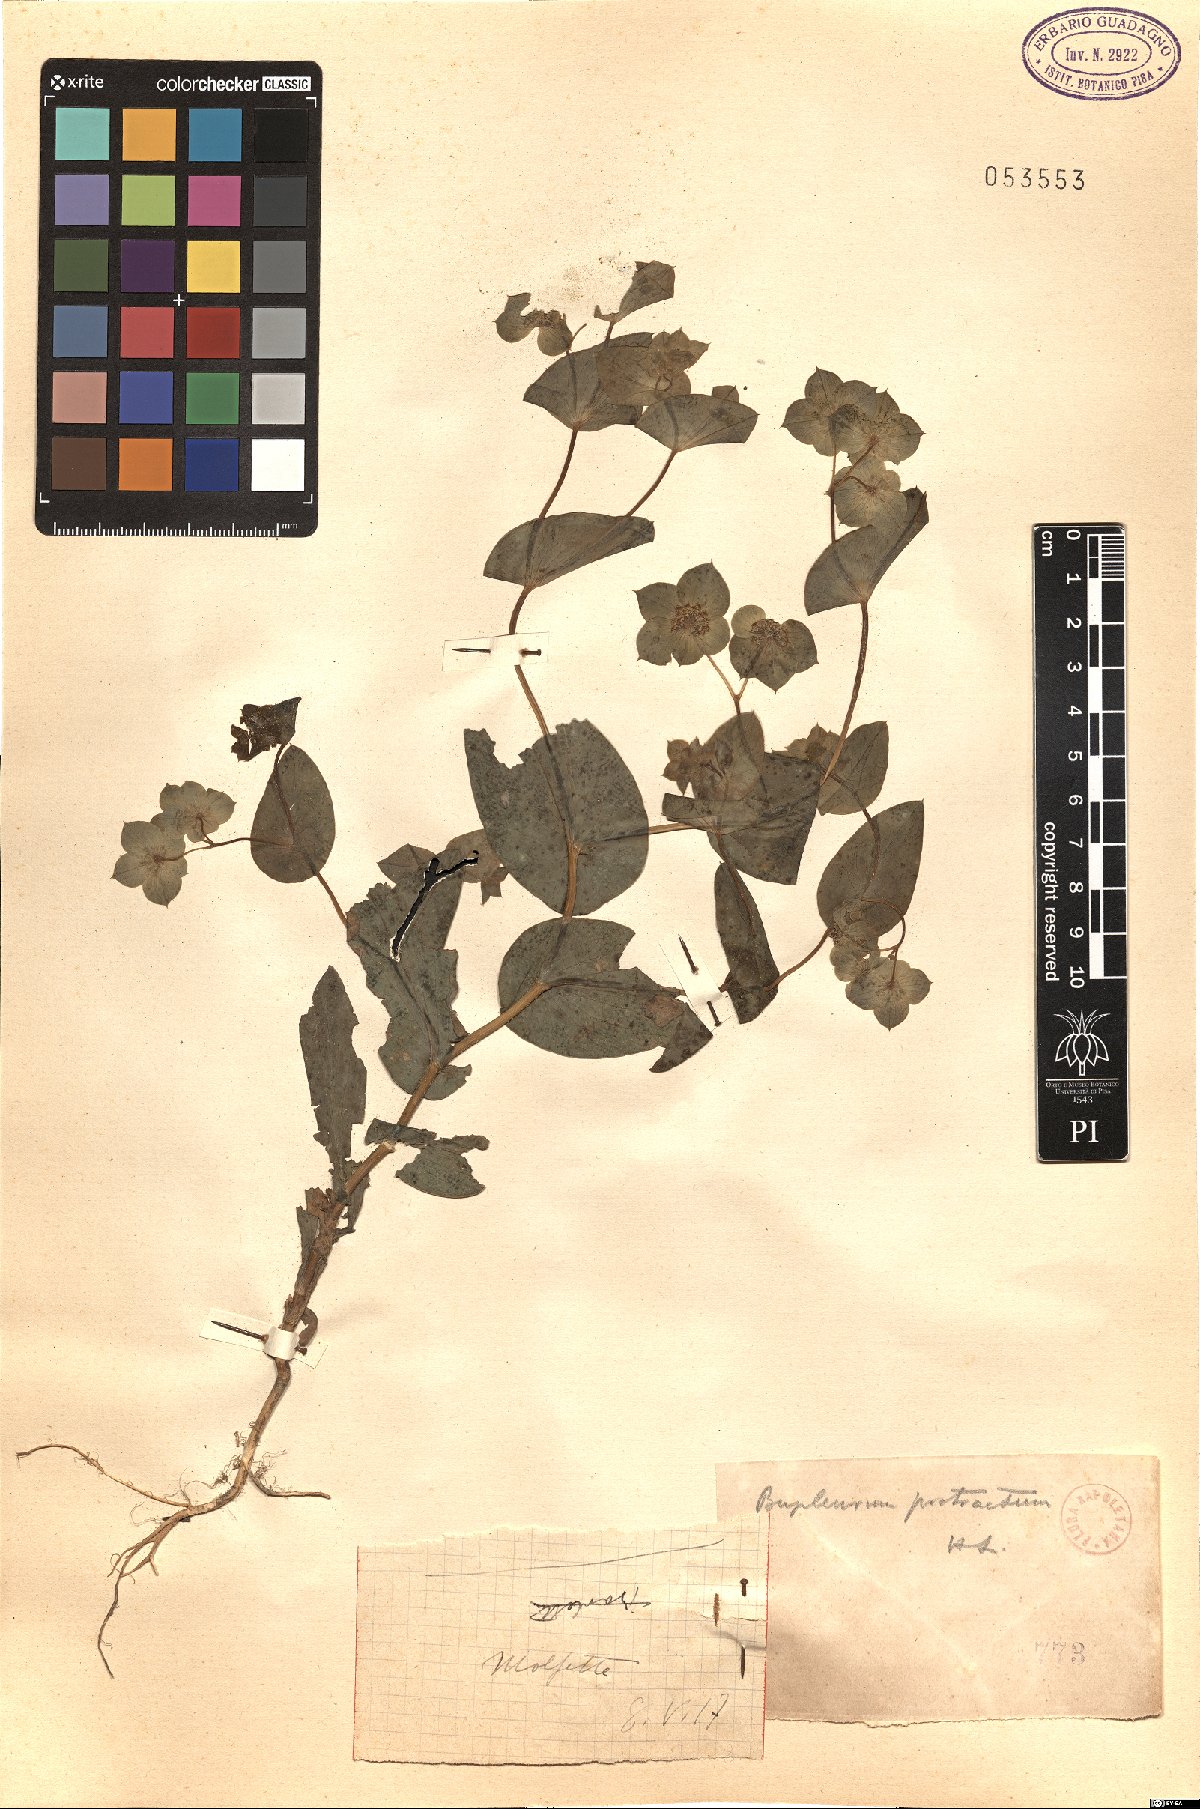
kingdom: Plantae
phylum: Tracheophyta
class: Magnoliopsida
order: Apiales
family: Apiaceae
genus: Bupleurum
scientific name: Bupleurum subovatum
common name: False thorow-wax
